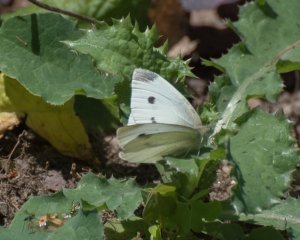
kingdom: Animalia
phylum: Arthropoda
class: Insecta
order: Lepidoptera
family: Pieridae
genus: Pieris
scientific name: Pieris rapae
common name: Cabbage White
